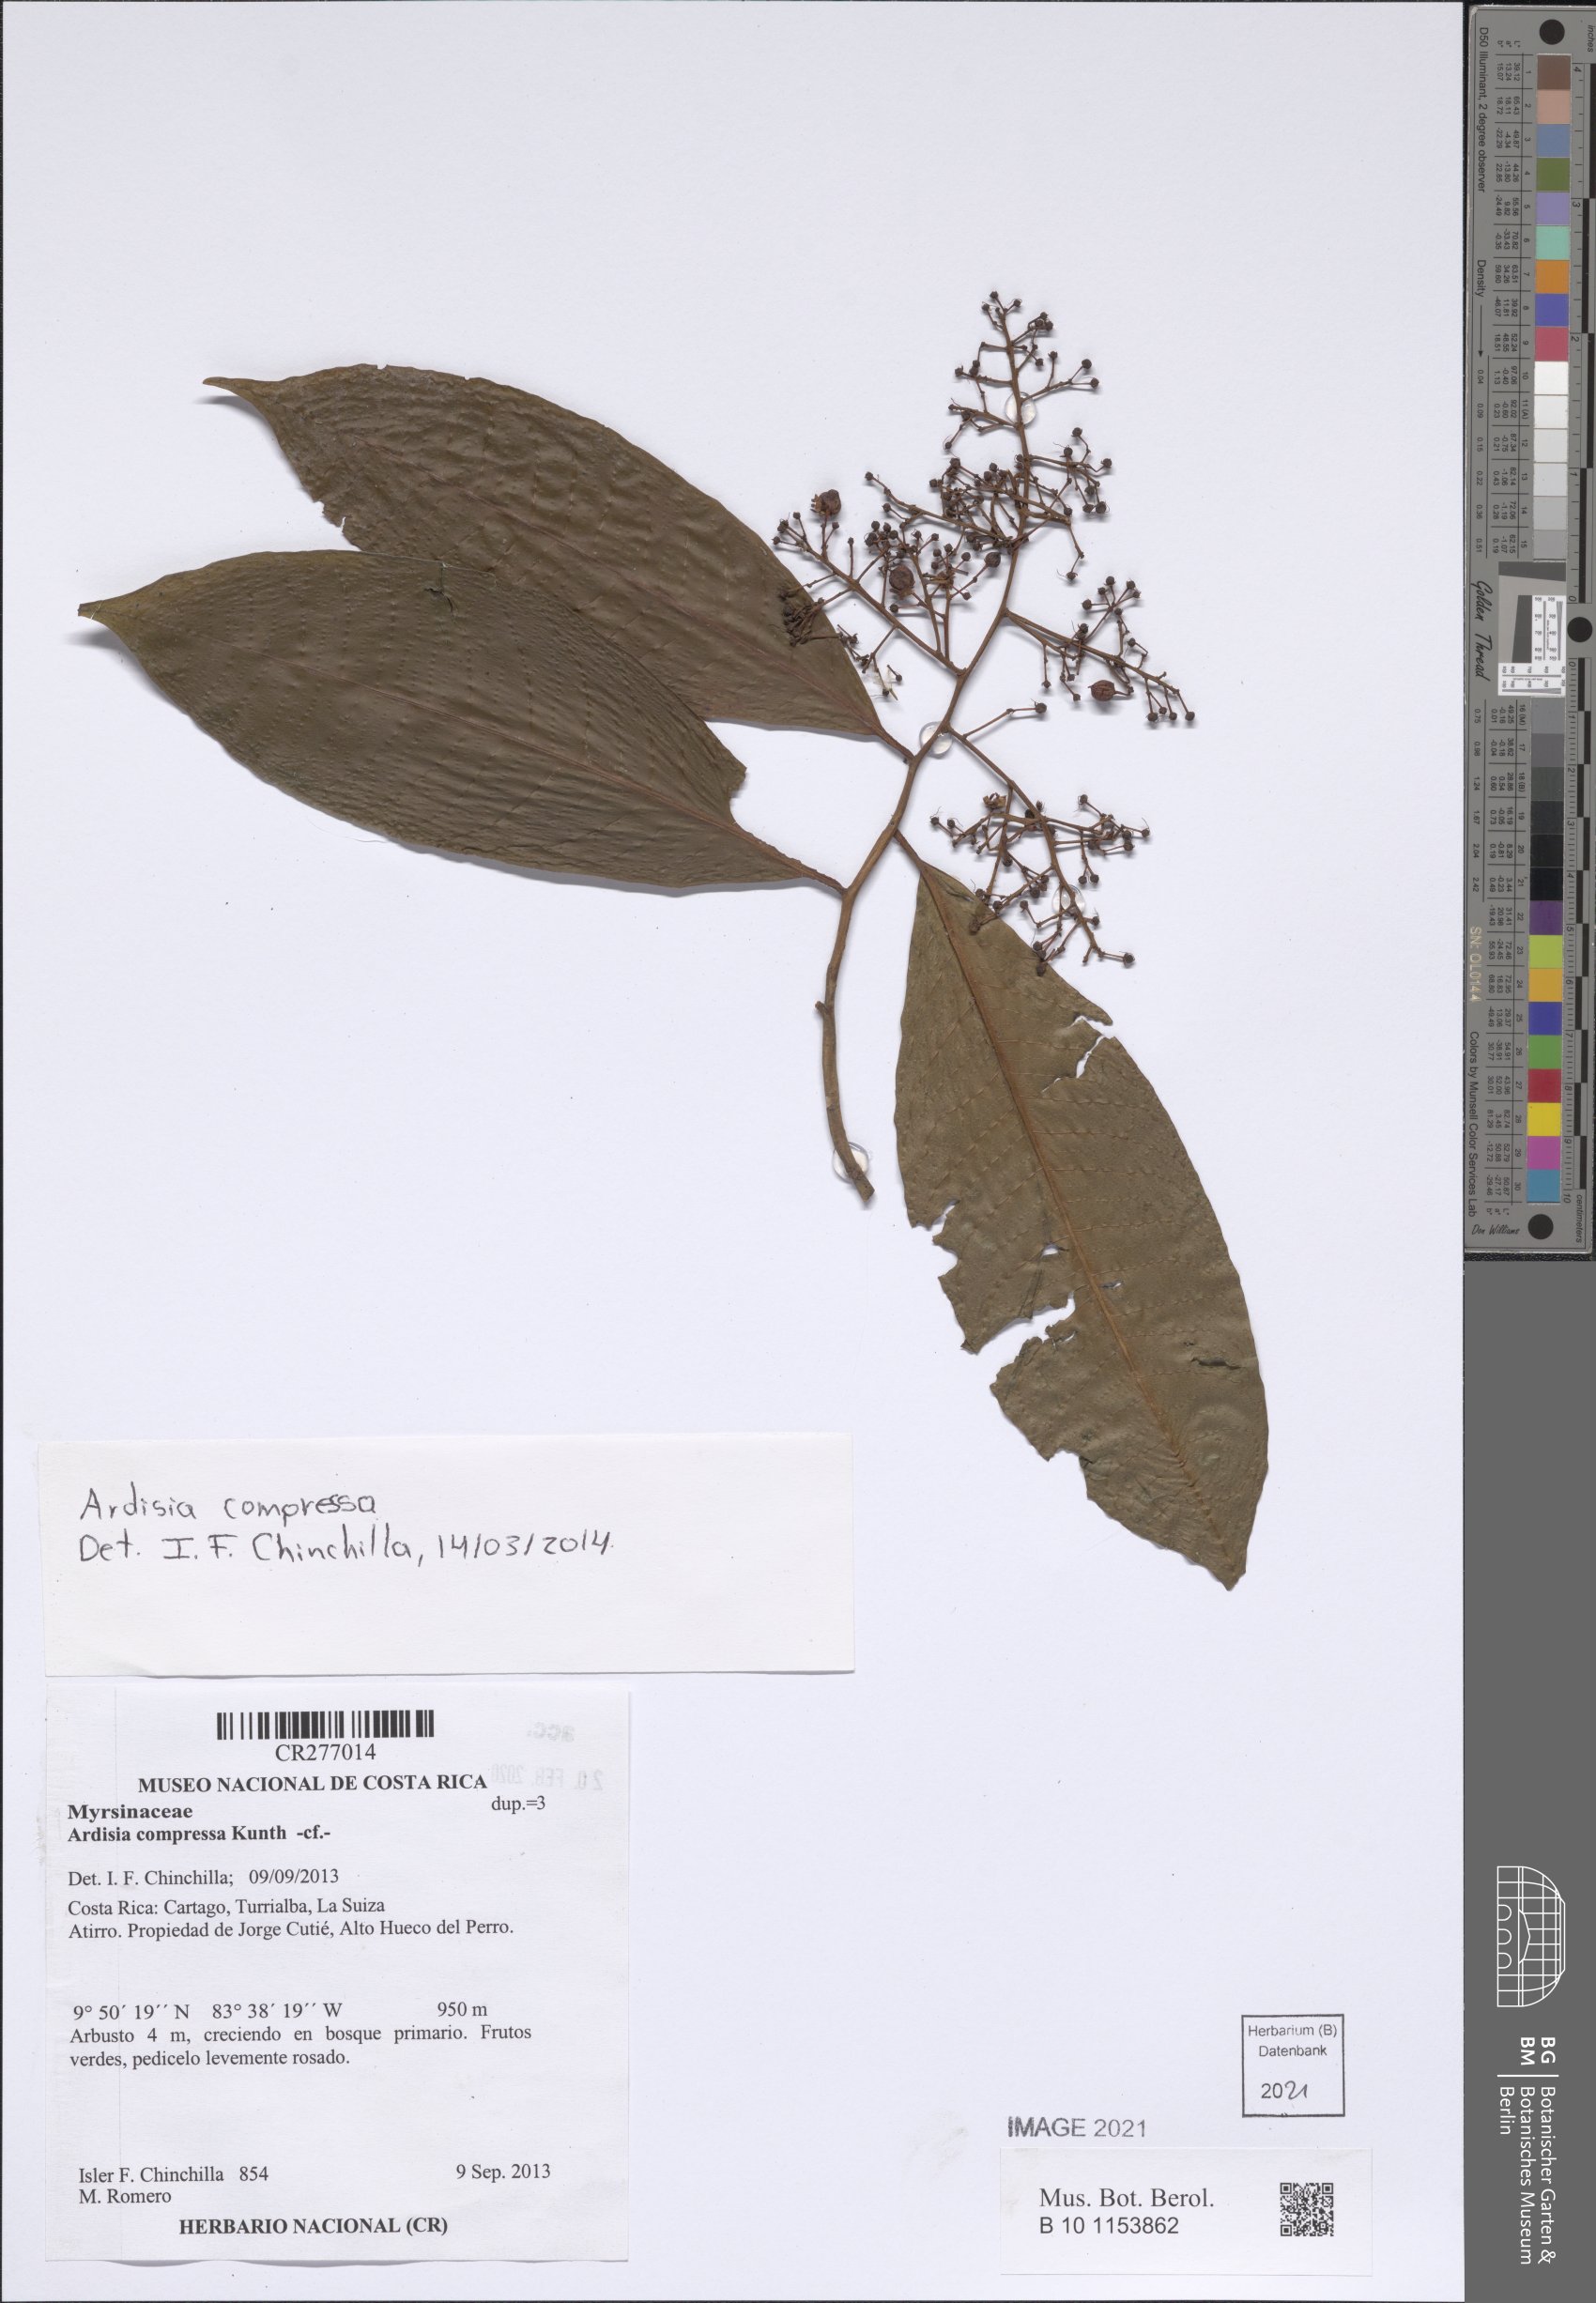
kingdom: Plantae
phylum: Tracheophyta
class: Magnoliopsida
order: Ericales
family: Primulaceae
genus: Ardisia
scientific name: Ardisia compressa
